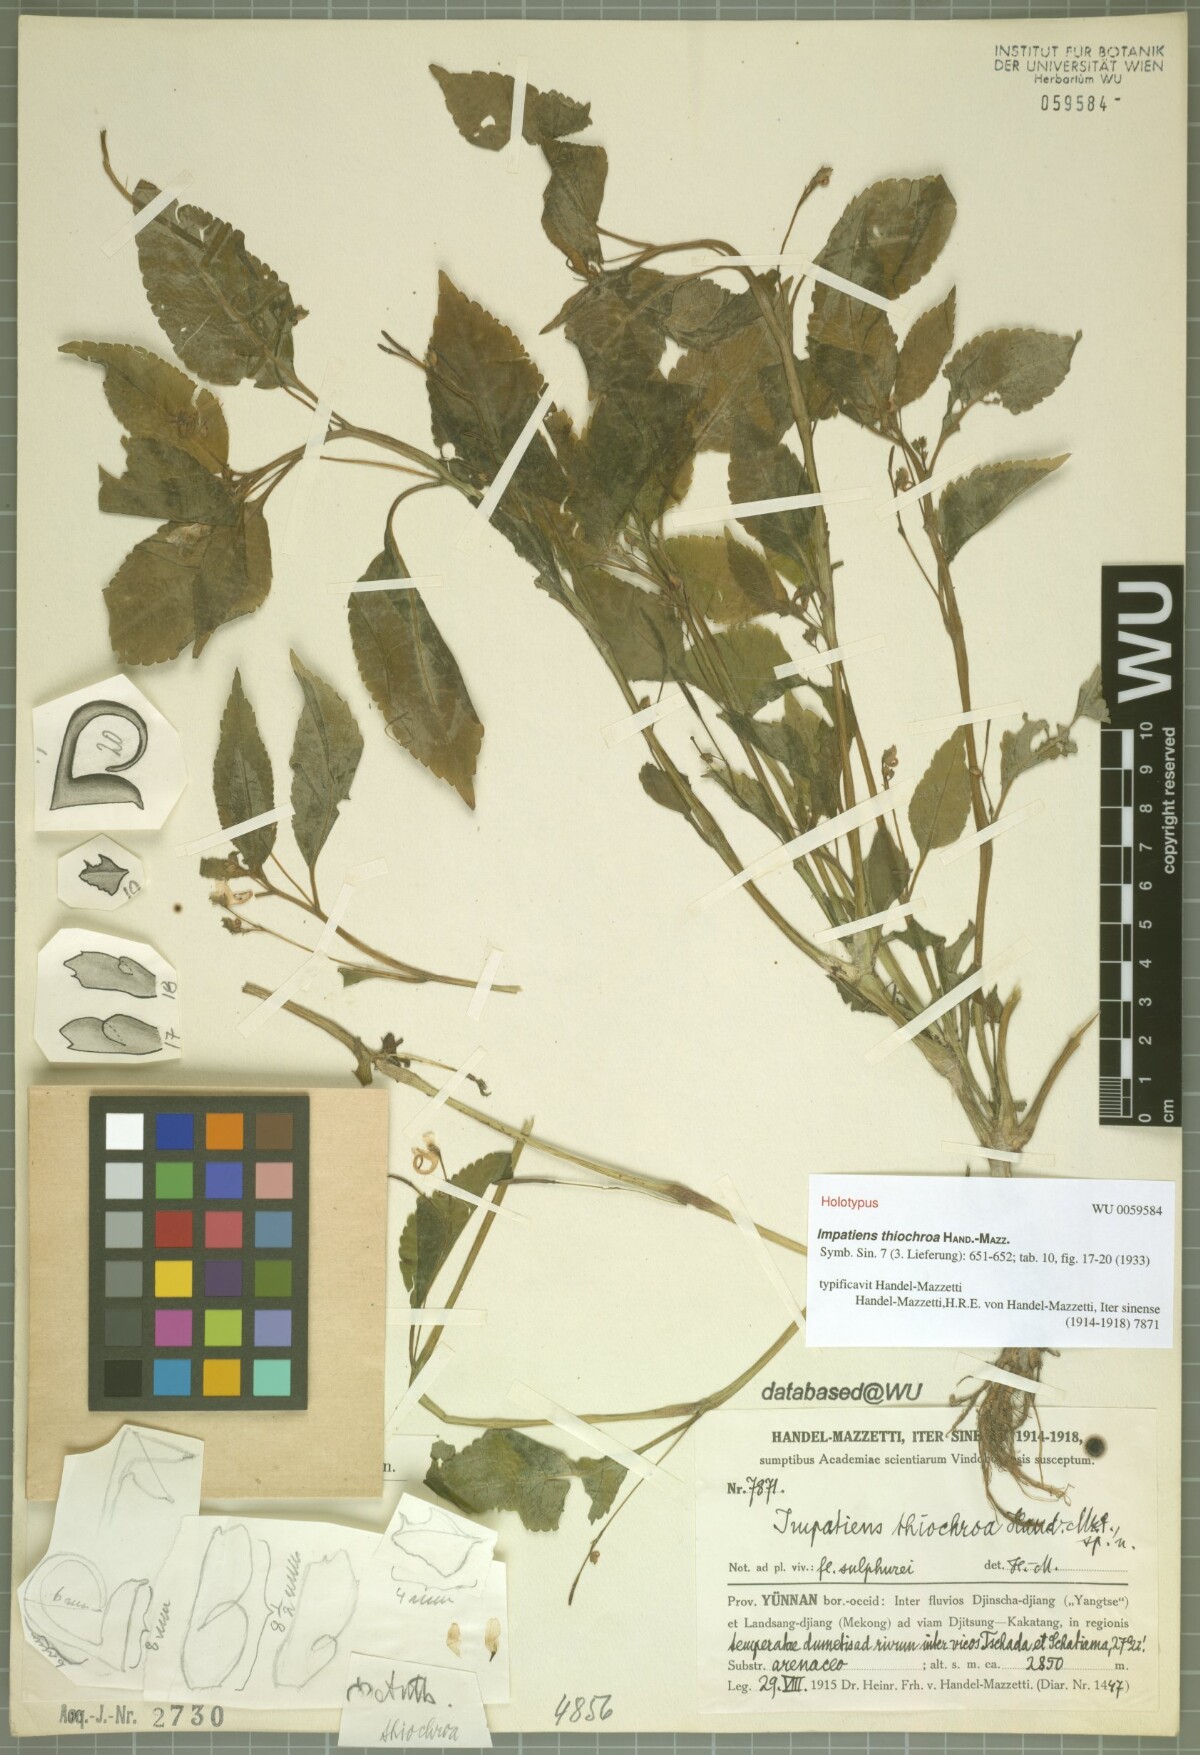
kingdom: Plantae
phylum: Tracheophyta
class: Magnoliopsida
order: Ericales
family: Balsaminaceae
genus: Impatiens
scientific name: Impatiens thiochroa
